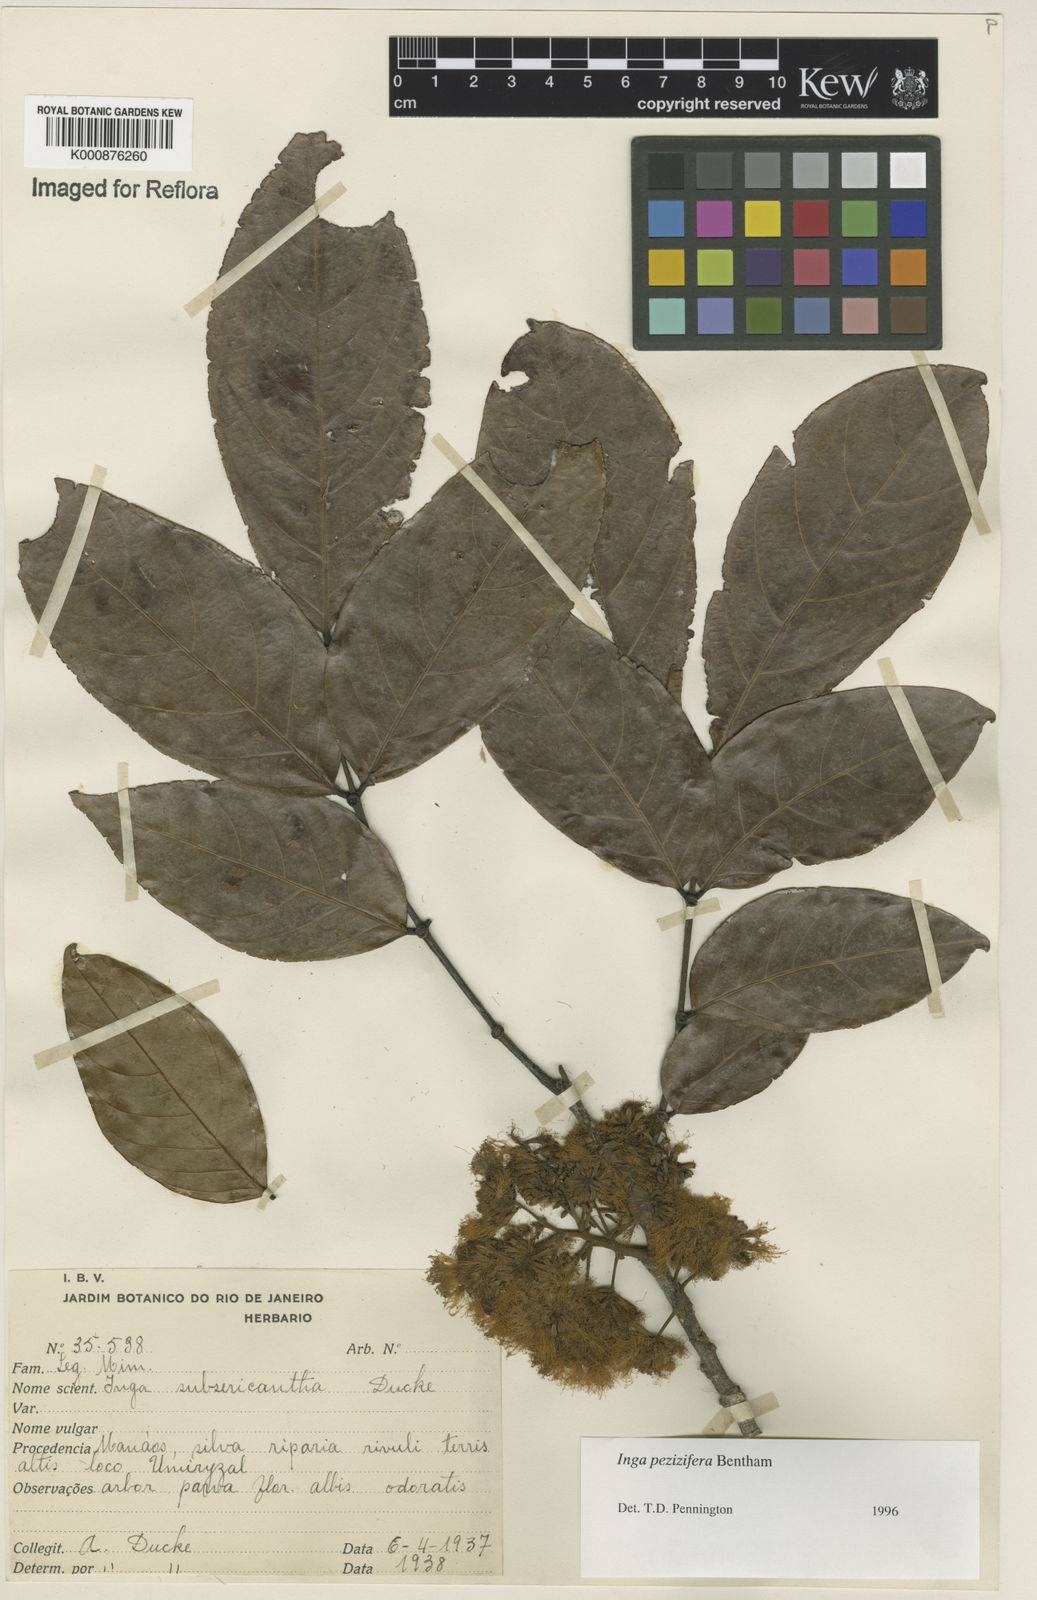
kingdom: Plantae
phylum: Tracheophyta
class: Magnoliopsida
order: Fabales
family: Fabaceae
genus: Inga
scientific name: Inga pezizifera
